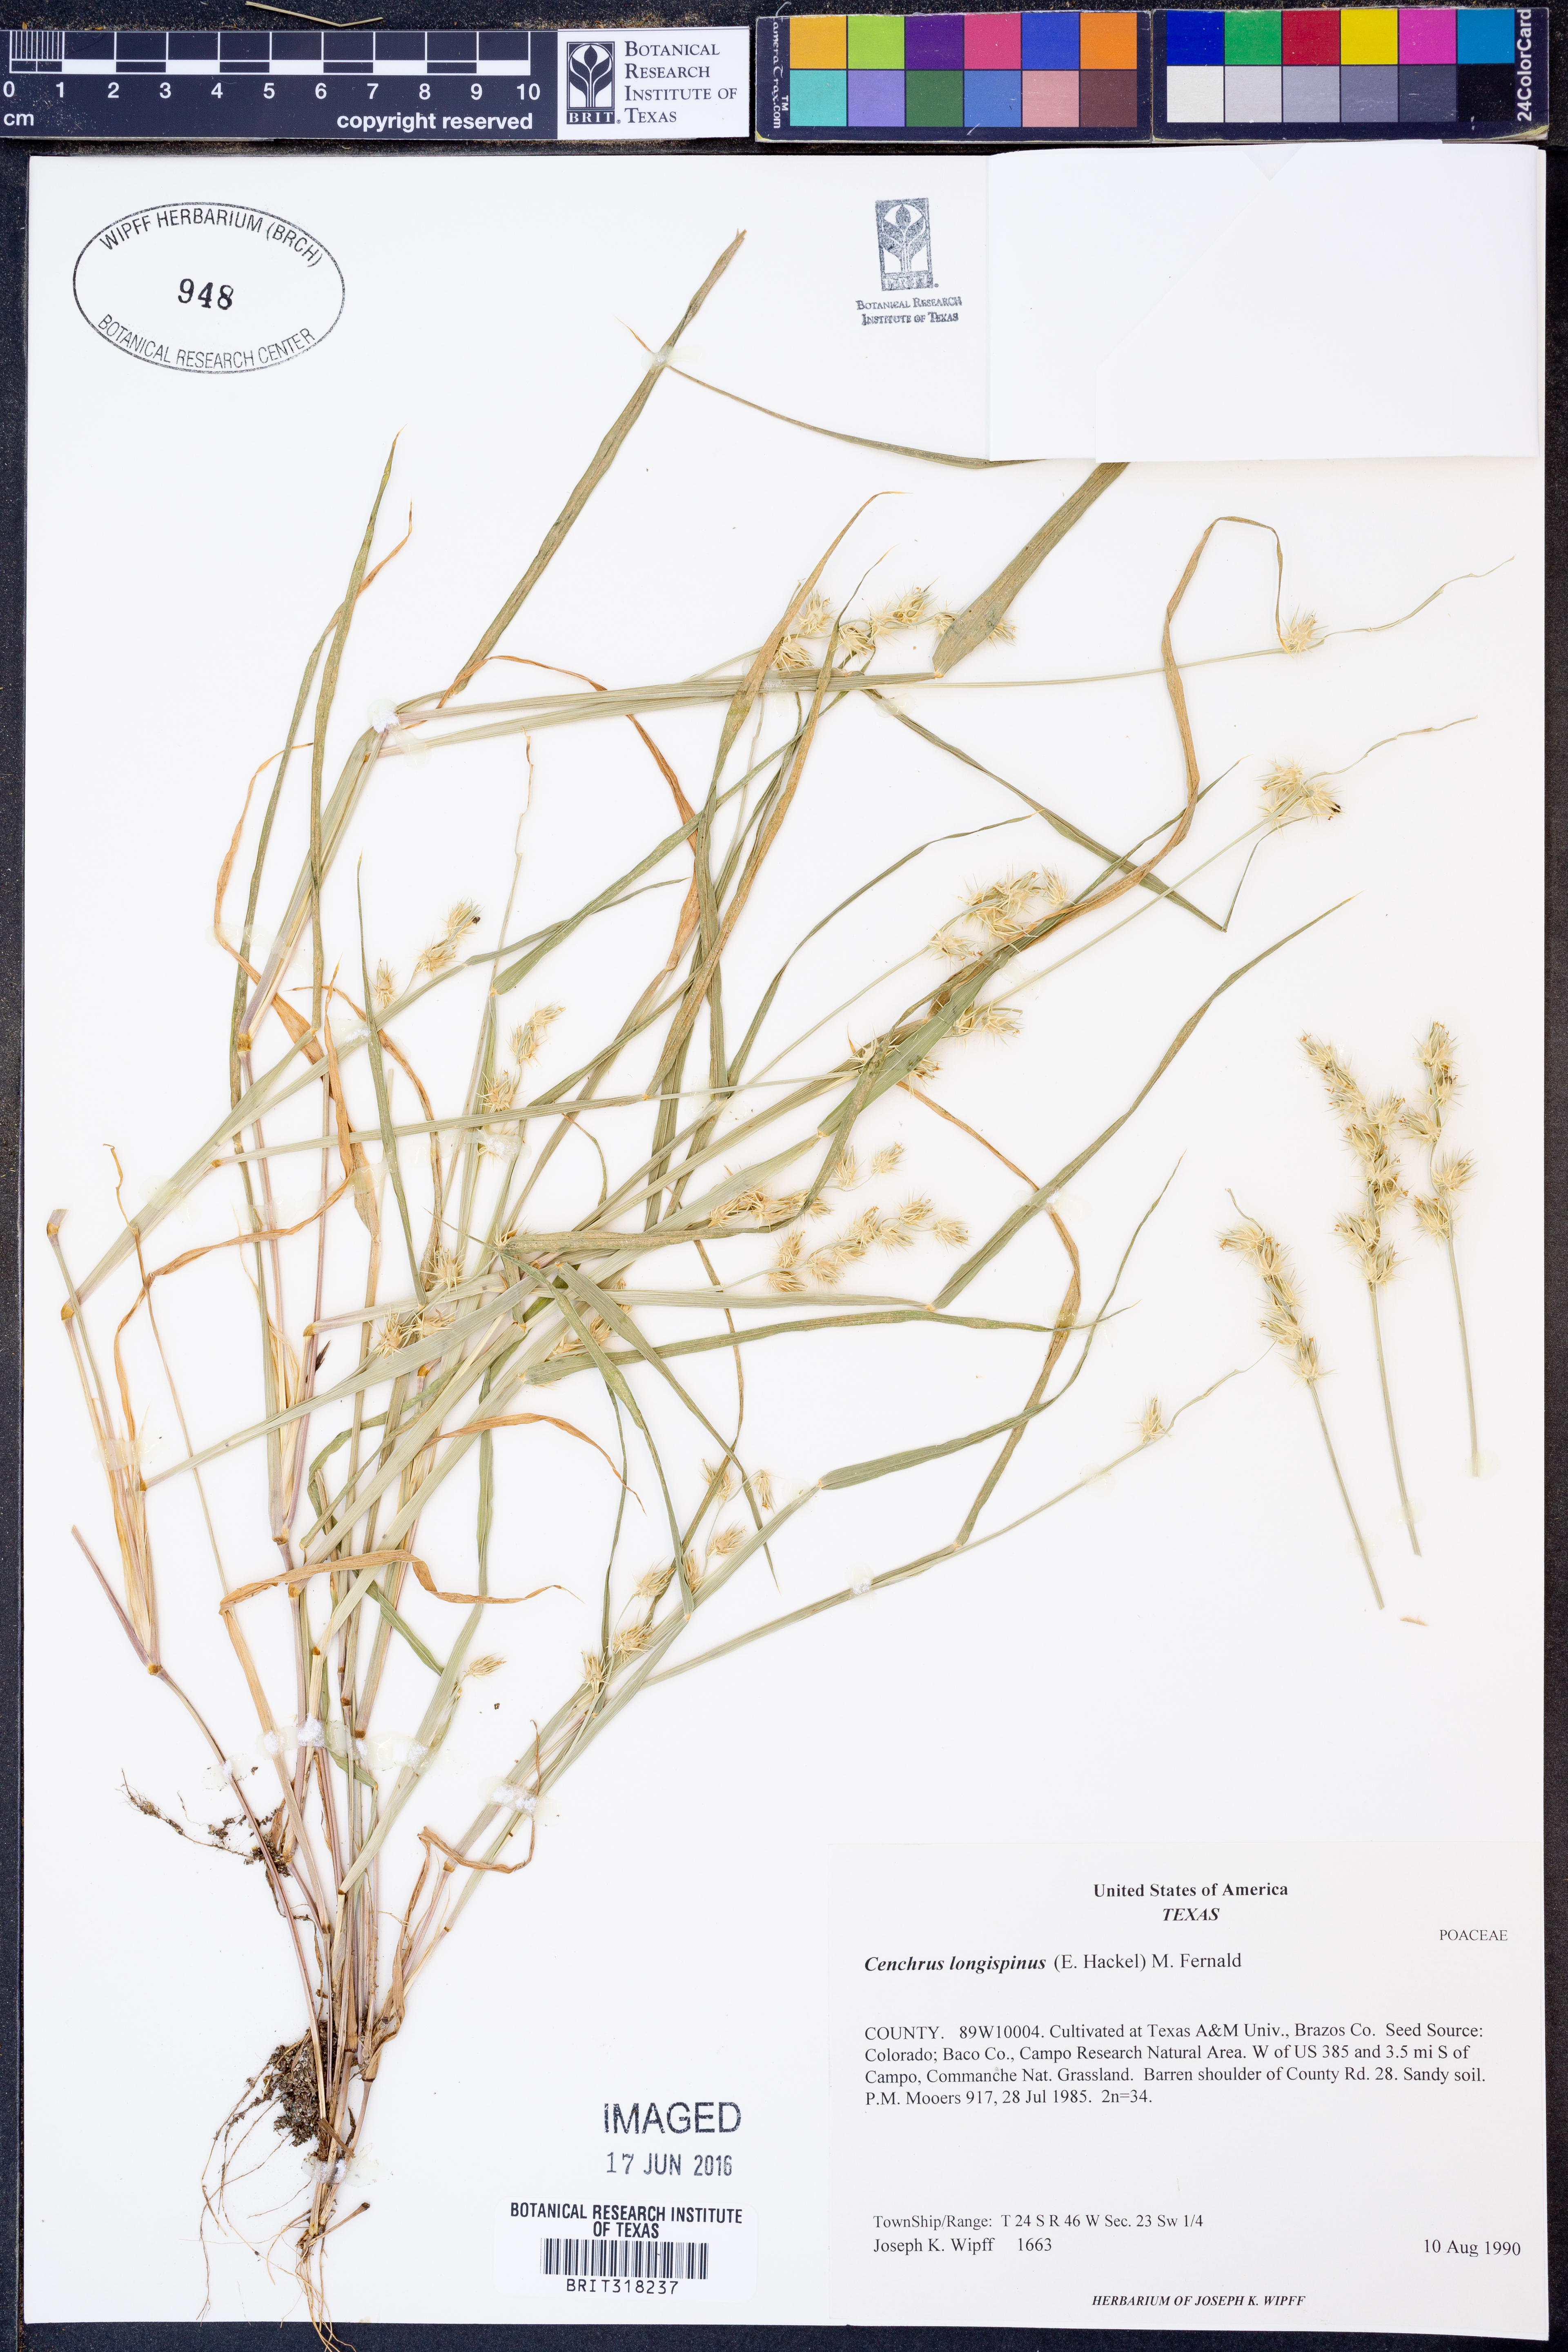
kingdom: Plantae
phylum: Tracheophyta
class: Liliopsida
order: Poales
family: Poaceae
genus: Cenchrus
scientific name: Cenchrus longispinus
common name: Mat sandbur
